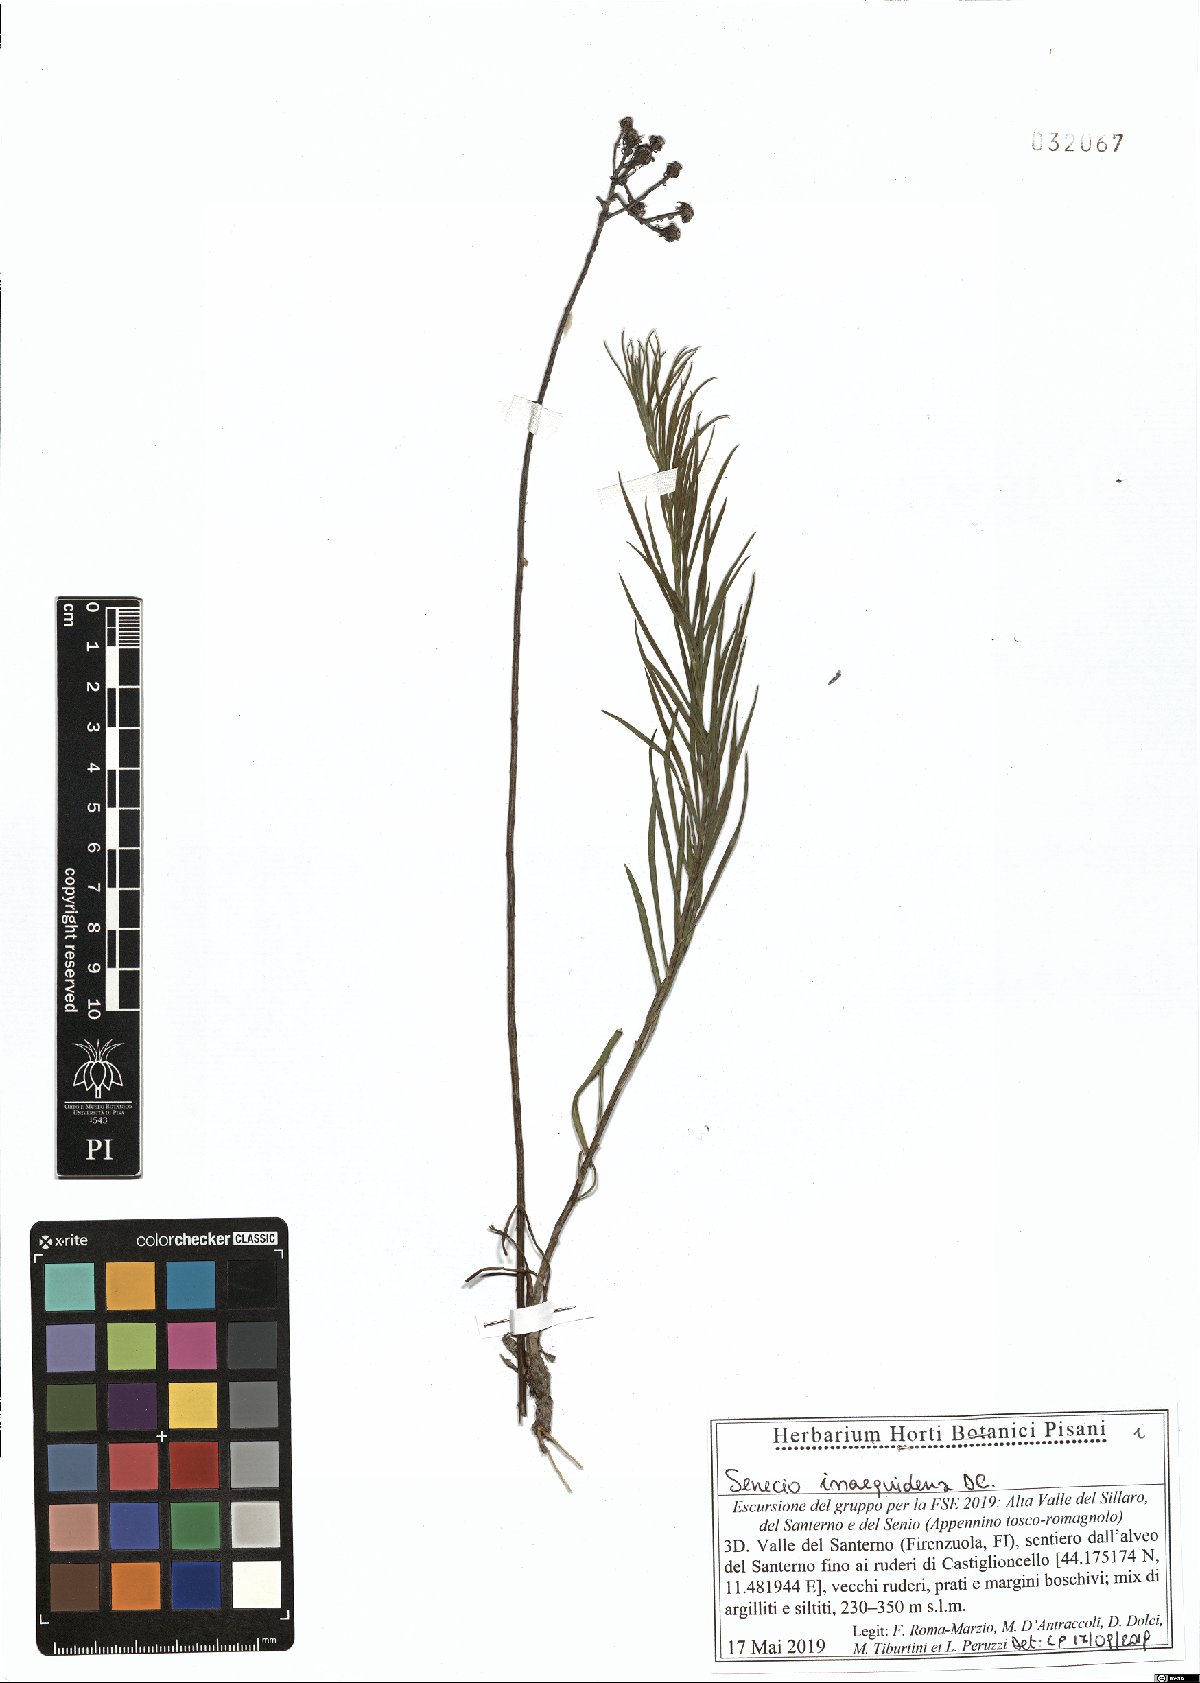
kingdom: Plantae
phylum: Tracheophyta
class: Magnoliopsida
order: Asterales
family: Asteraceae
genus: Senecio
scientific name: Senecio inaequidens
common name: Narrow-leaved ragwort
